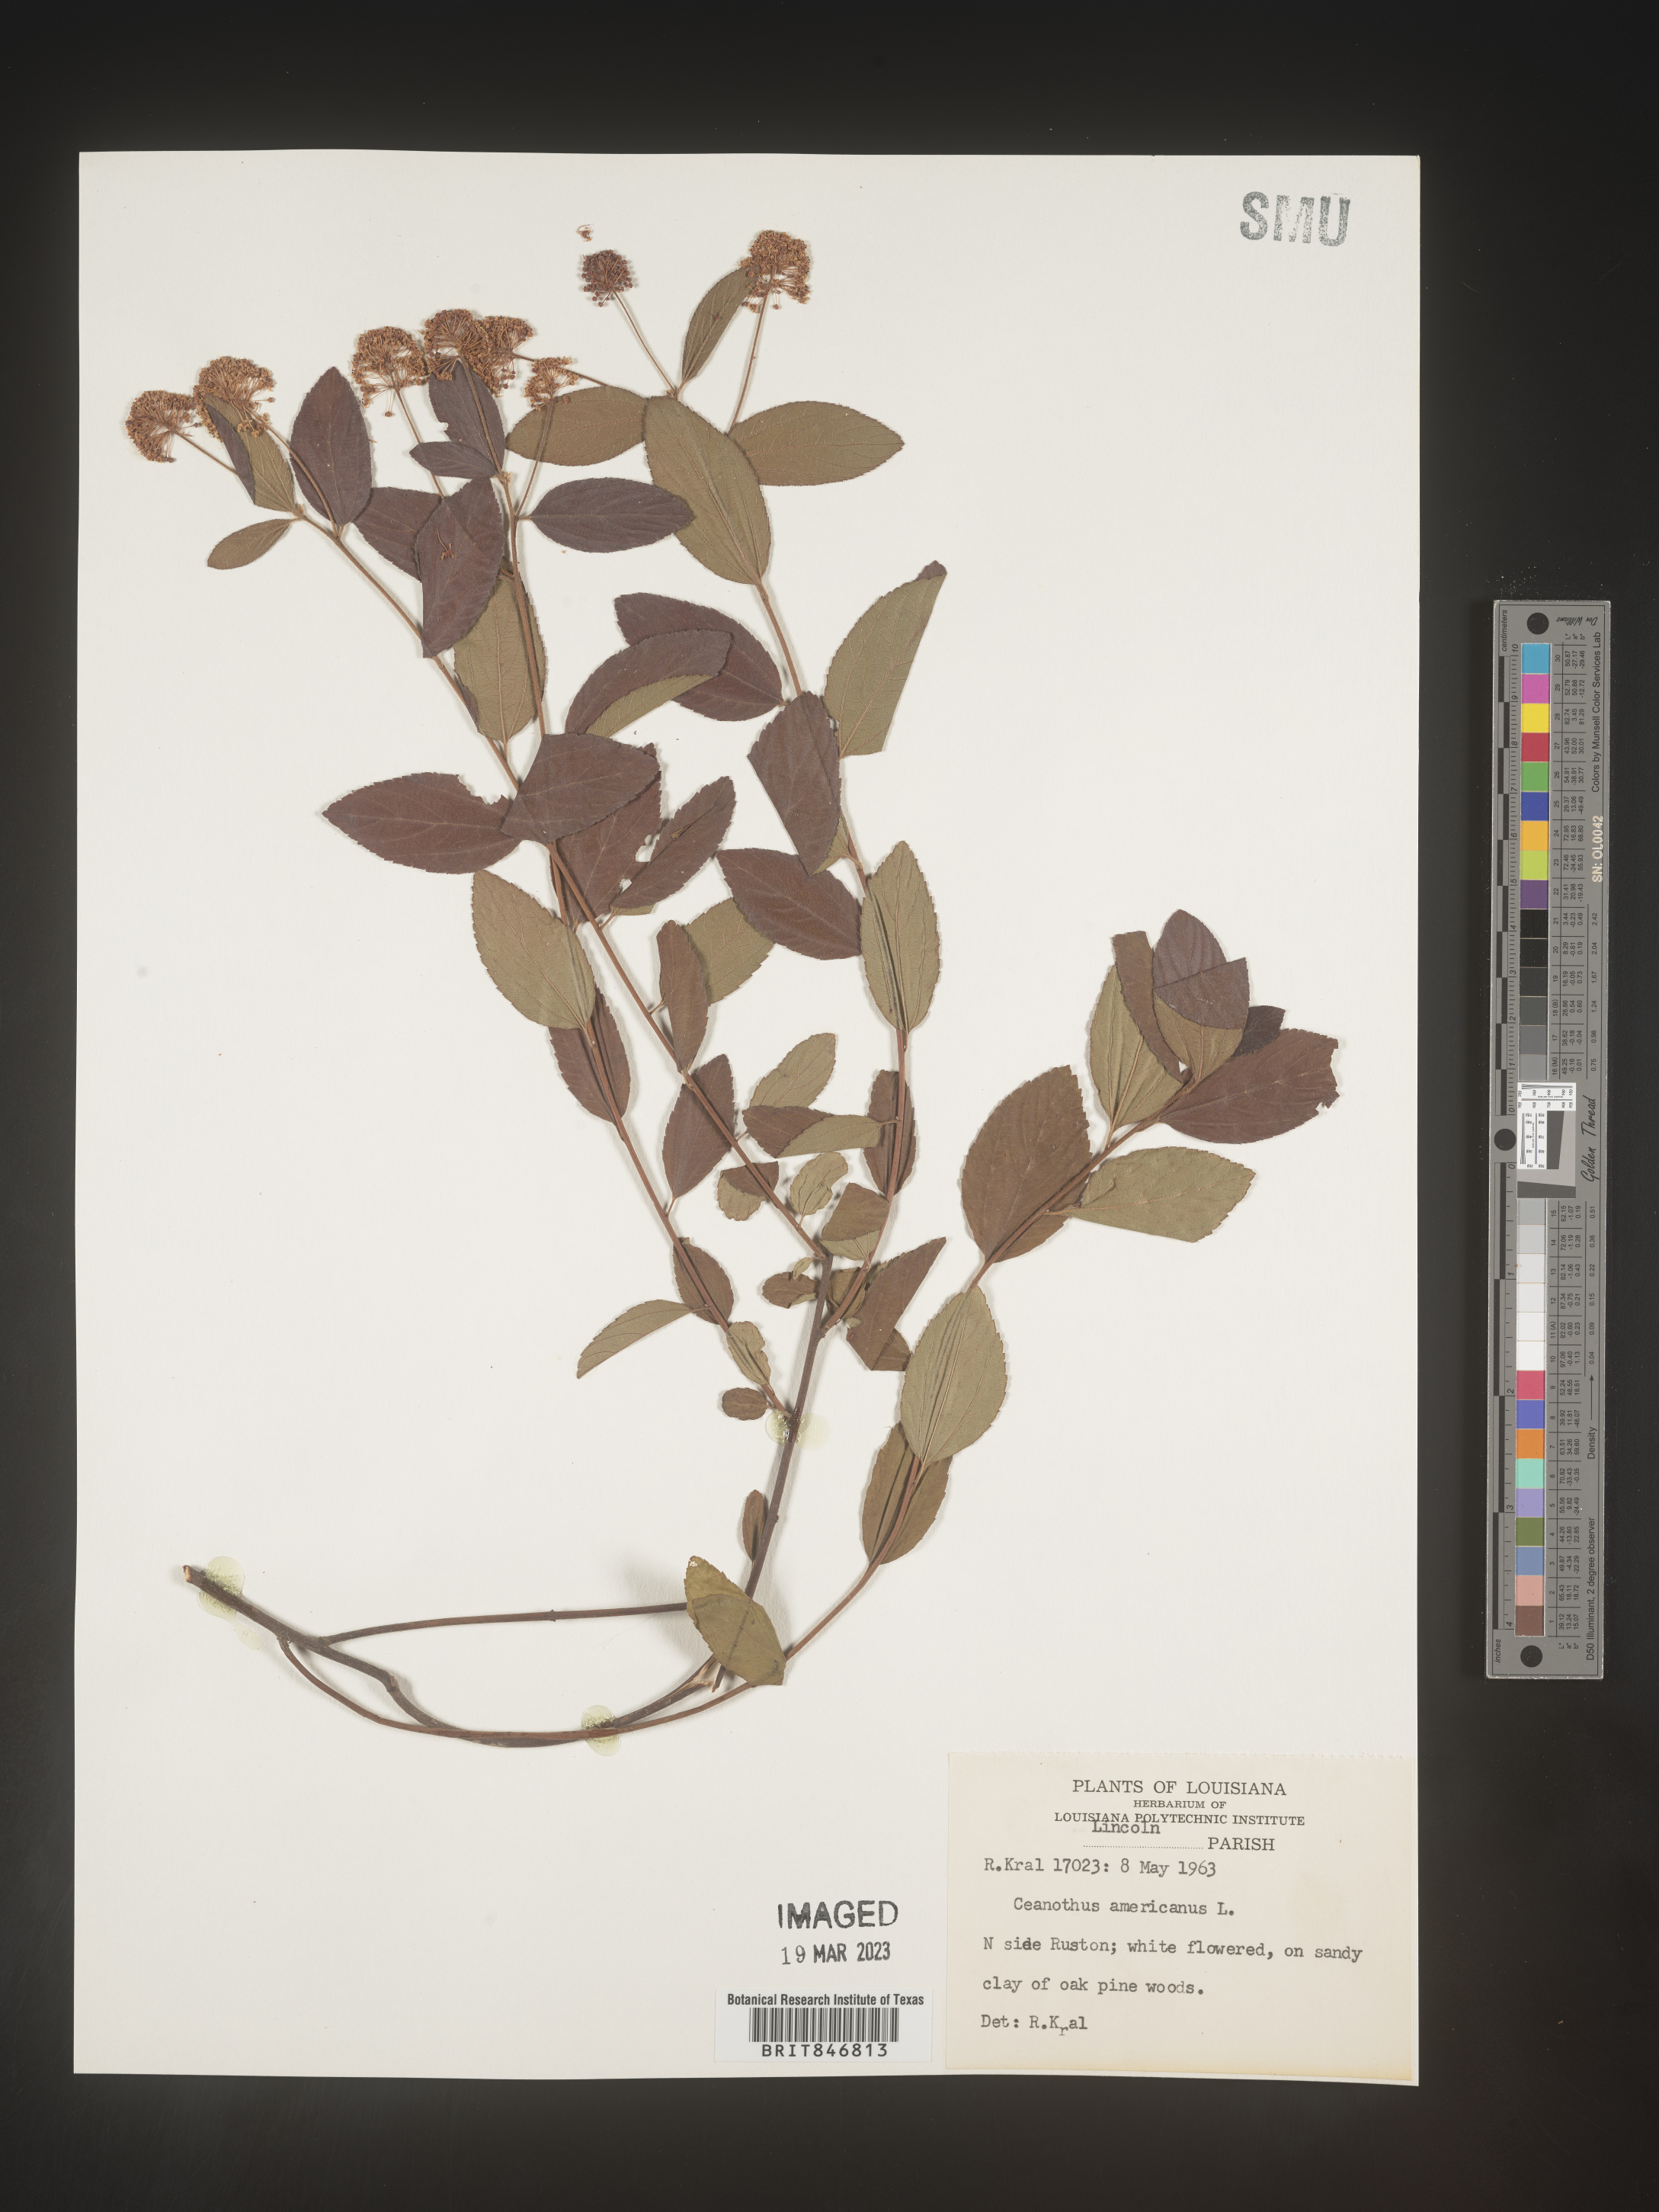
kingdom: Plantae
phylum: Tracheophyta
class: Magnoliopsida
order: Rosales
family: Rhamnaceae
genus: Ceanothus
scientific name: Ceanothus americanus
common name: Redroot
